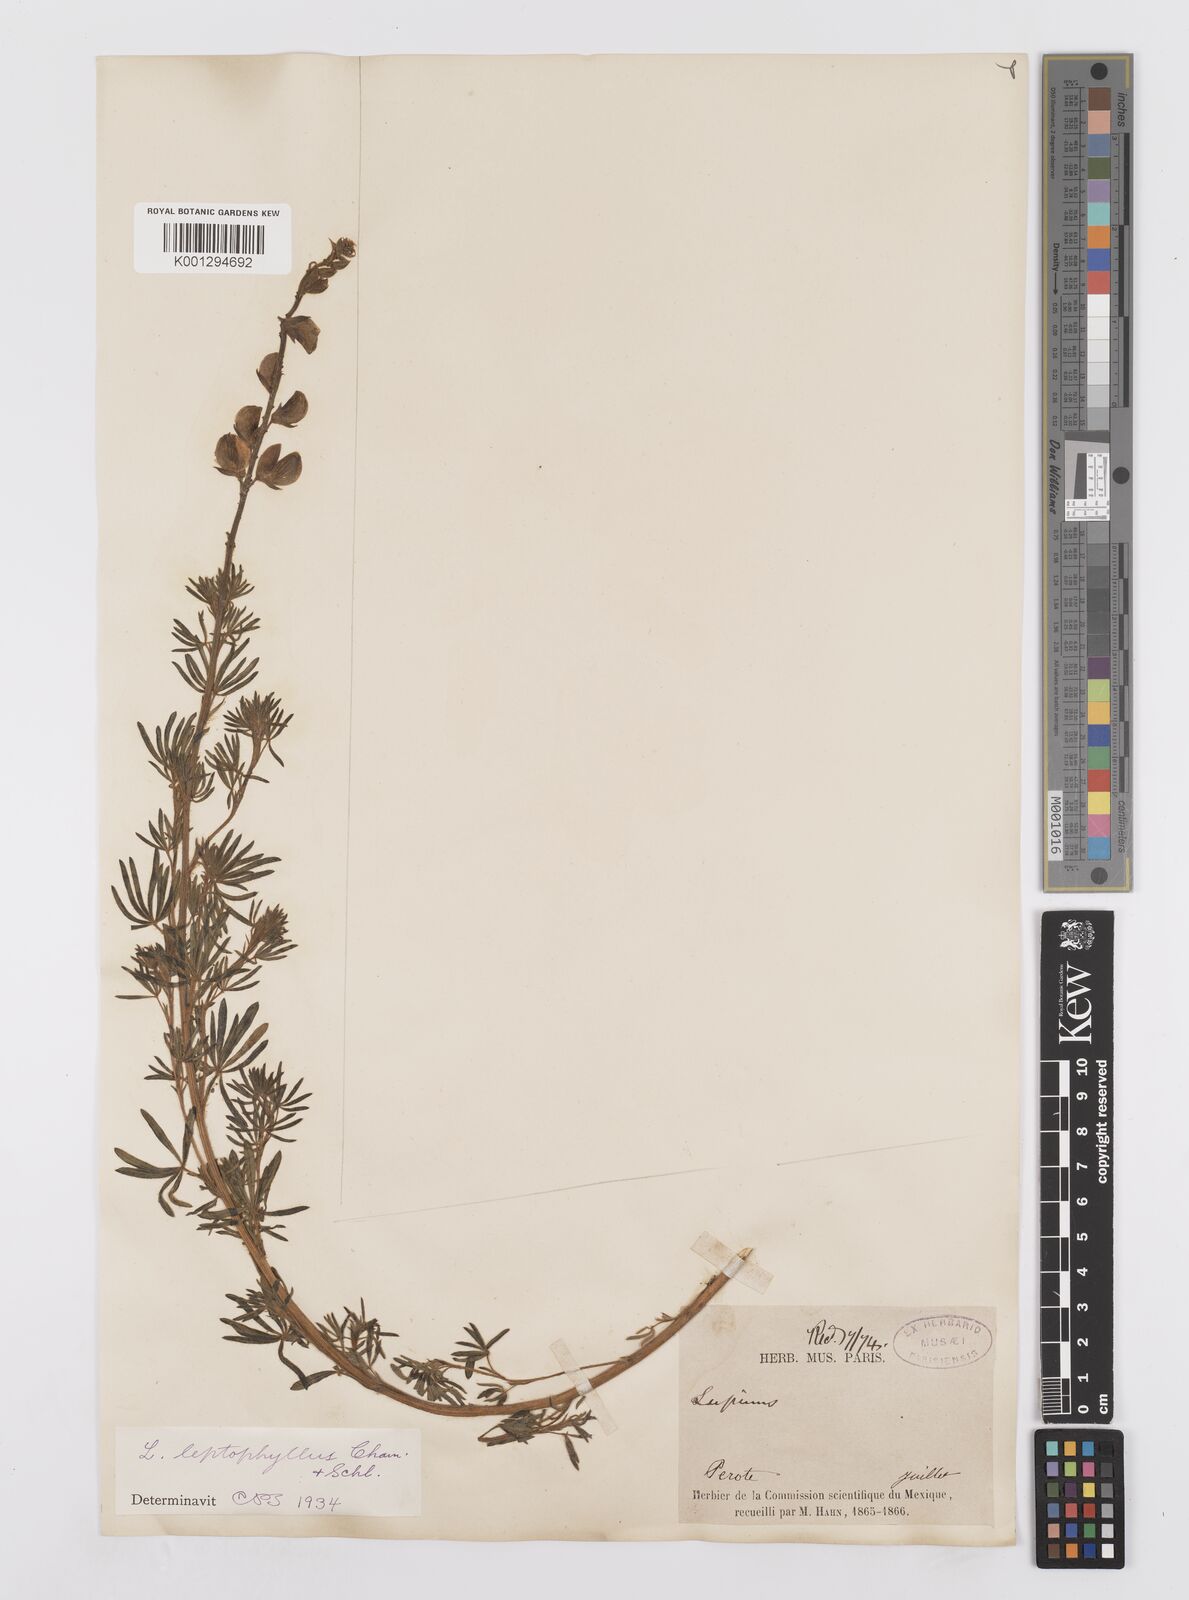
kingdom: Plantae
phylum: Tracheophyta
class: Magnoliopsida
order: Fabales
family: Fabaceae
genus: Lupinus
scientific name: Lupinus leptophyllus
